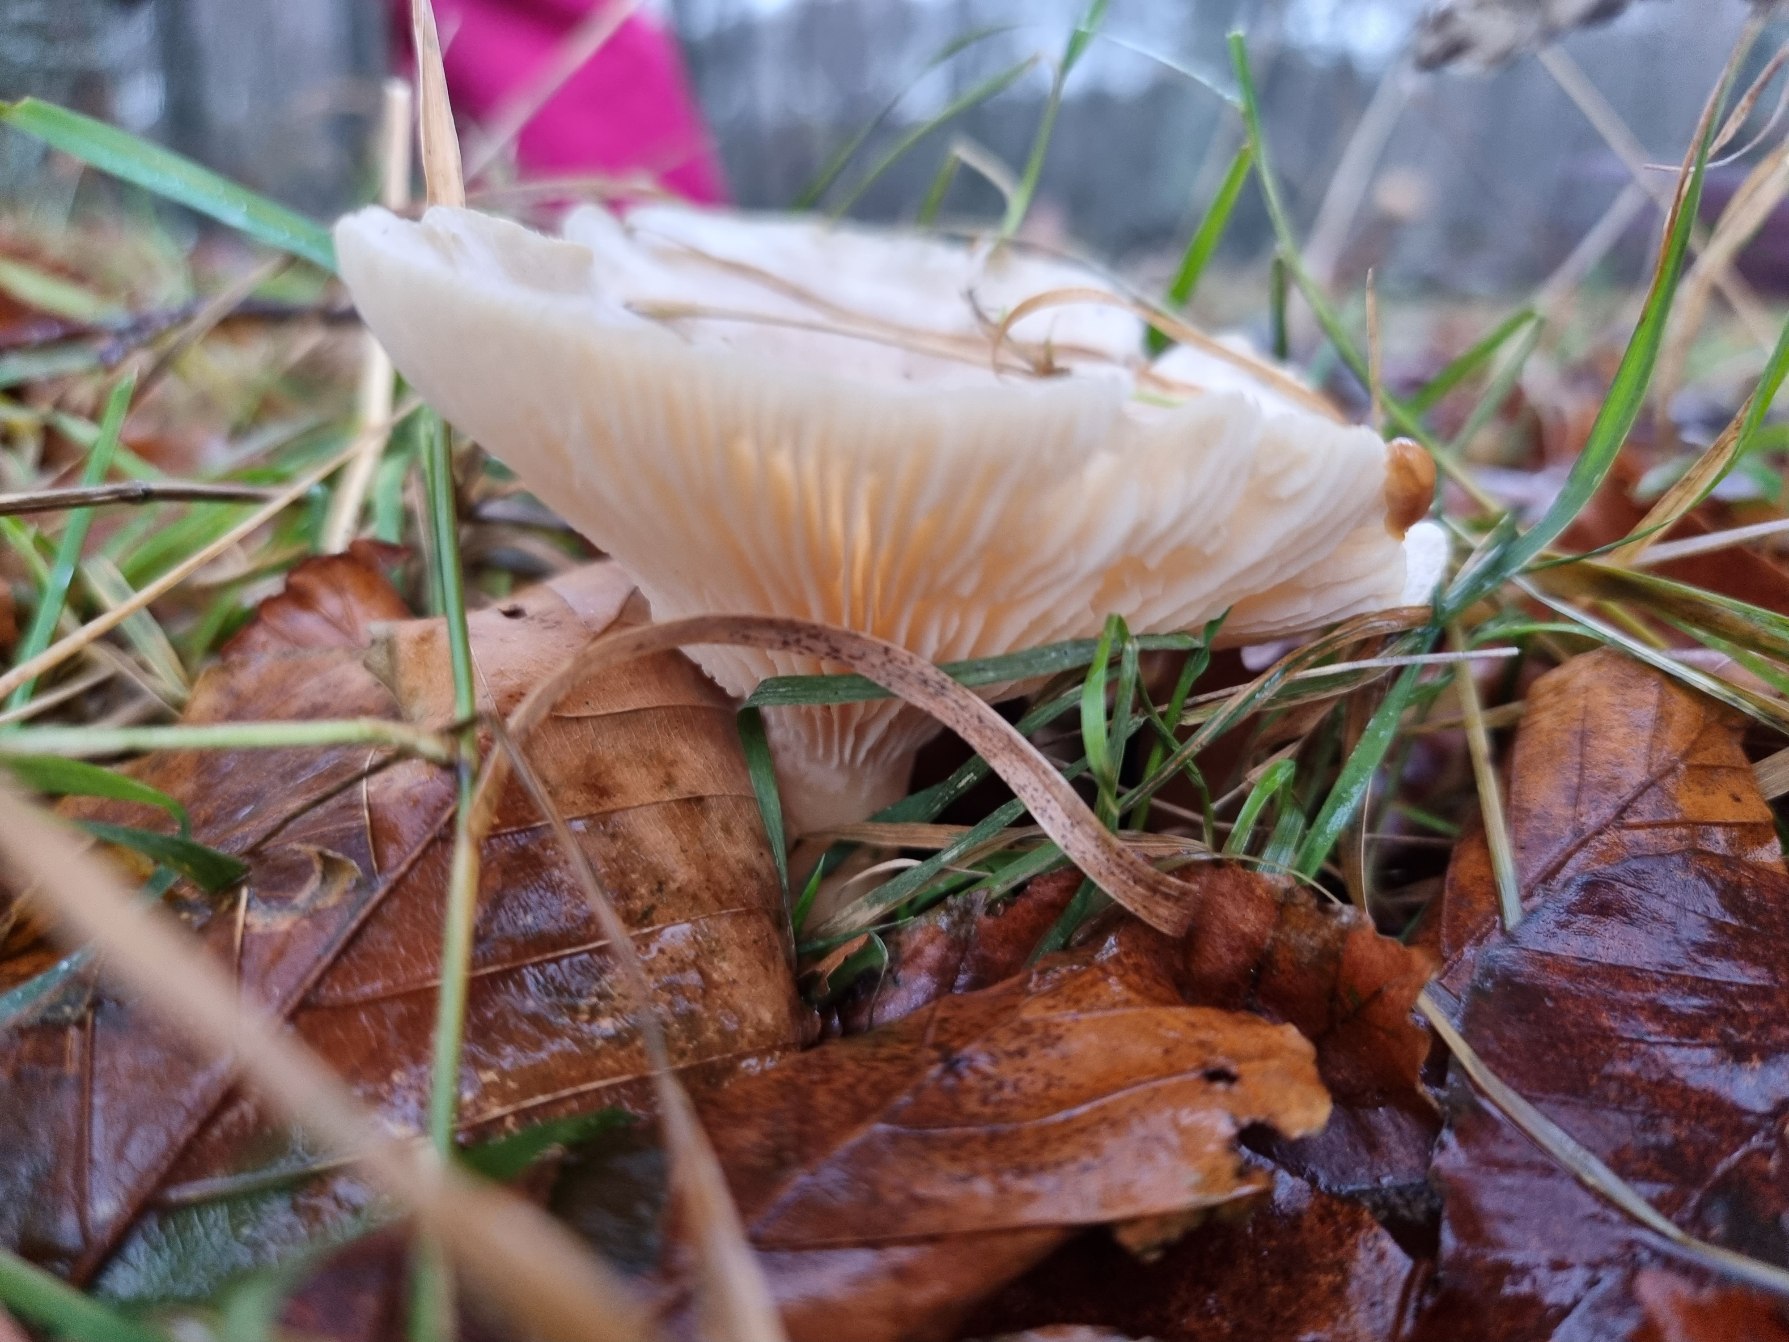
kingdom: Fungi
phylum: Basidiomycota
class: Agaricomycetes
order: Agaricales
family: Tricholomataceae
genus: Clitocybe
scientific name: Clitocybe nebularis
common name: Tåge-tragthat
